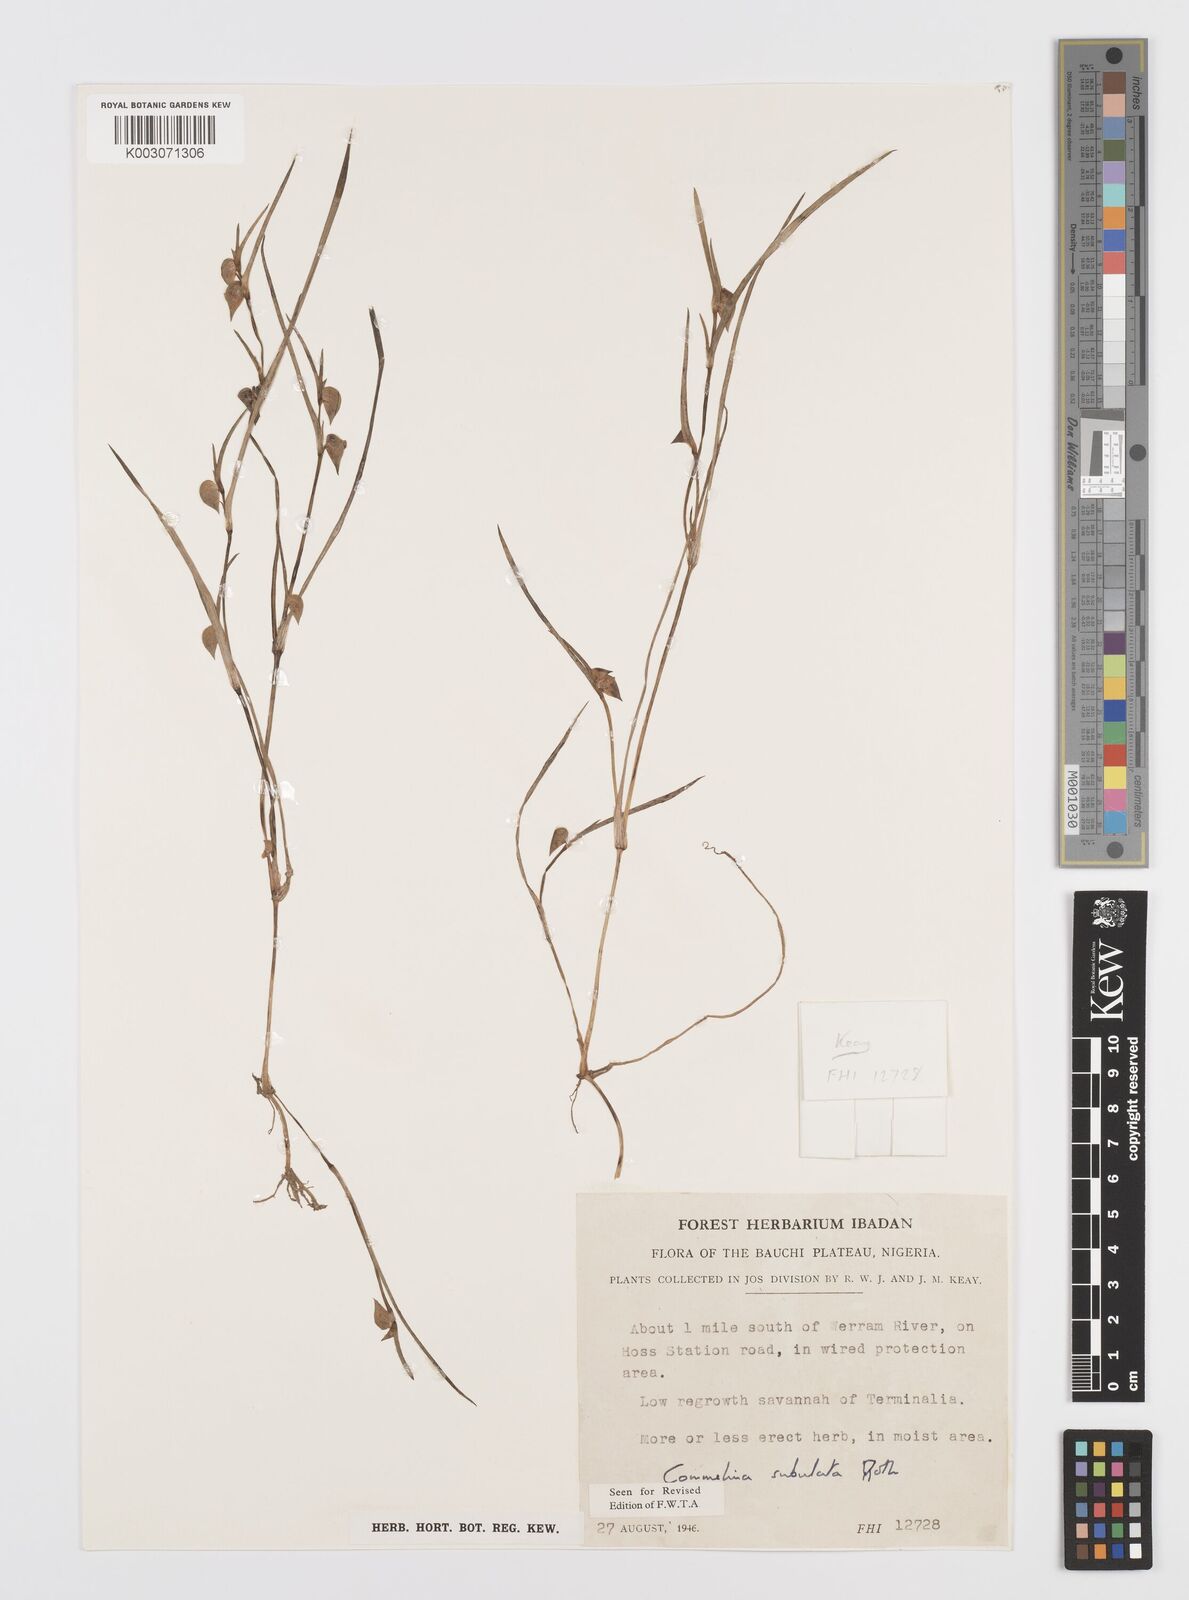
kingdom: Plantae
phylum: Tracheophyta
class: Liliopsida
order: Commelinales
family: Commelinaceae
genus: Commelina
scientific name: Commelina subulata
